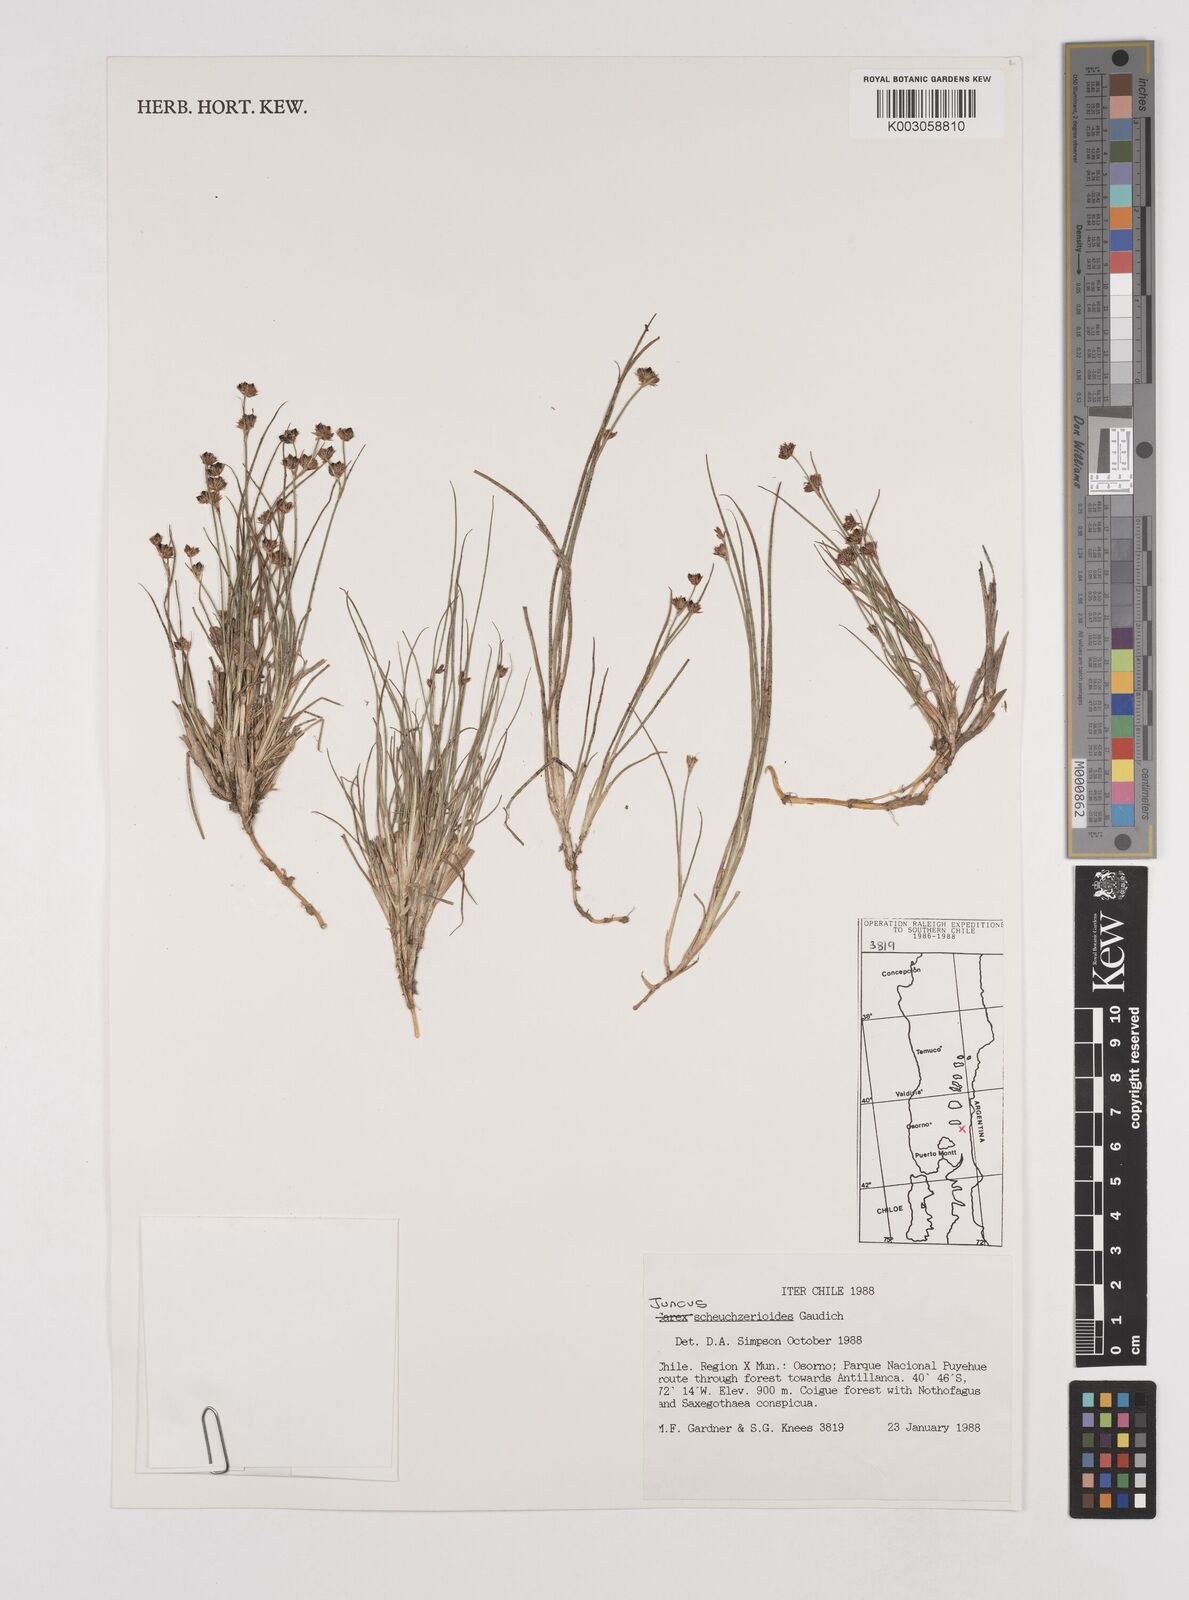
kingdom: Plantae
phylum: Tracheophyta
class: Liliopsida
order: Poales
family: Juncaceae
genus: Juncus
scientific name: Juncus scheuchzerioides
